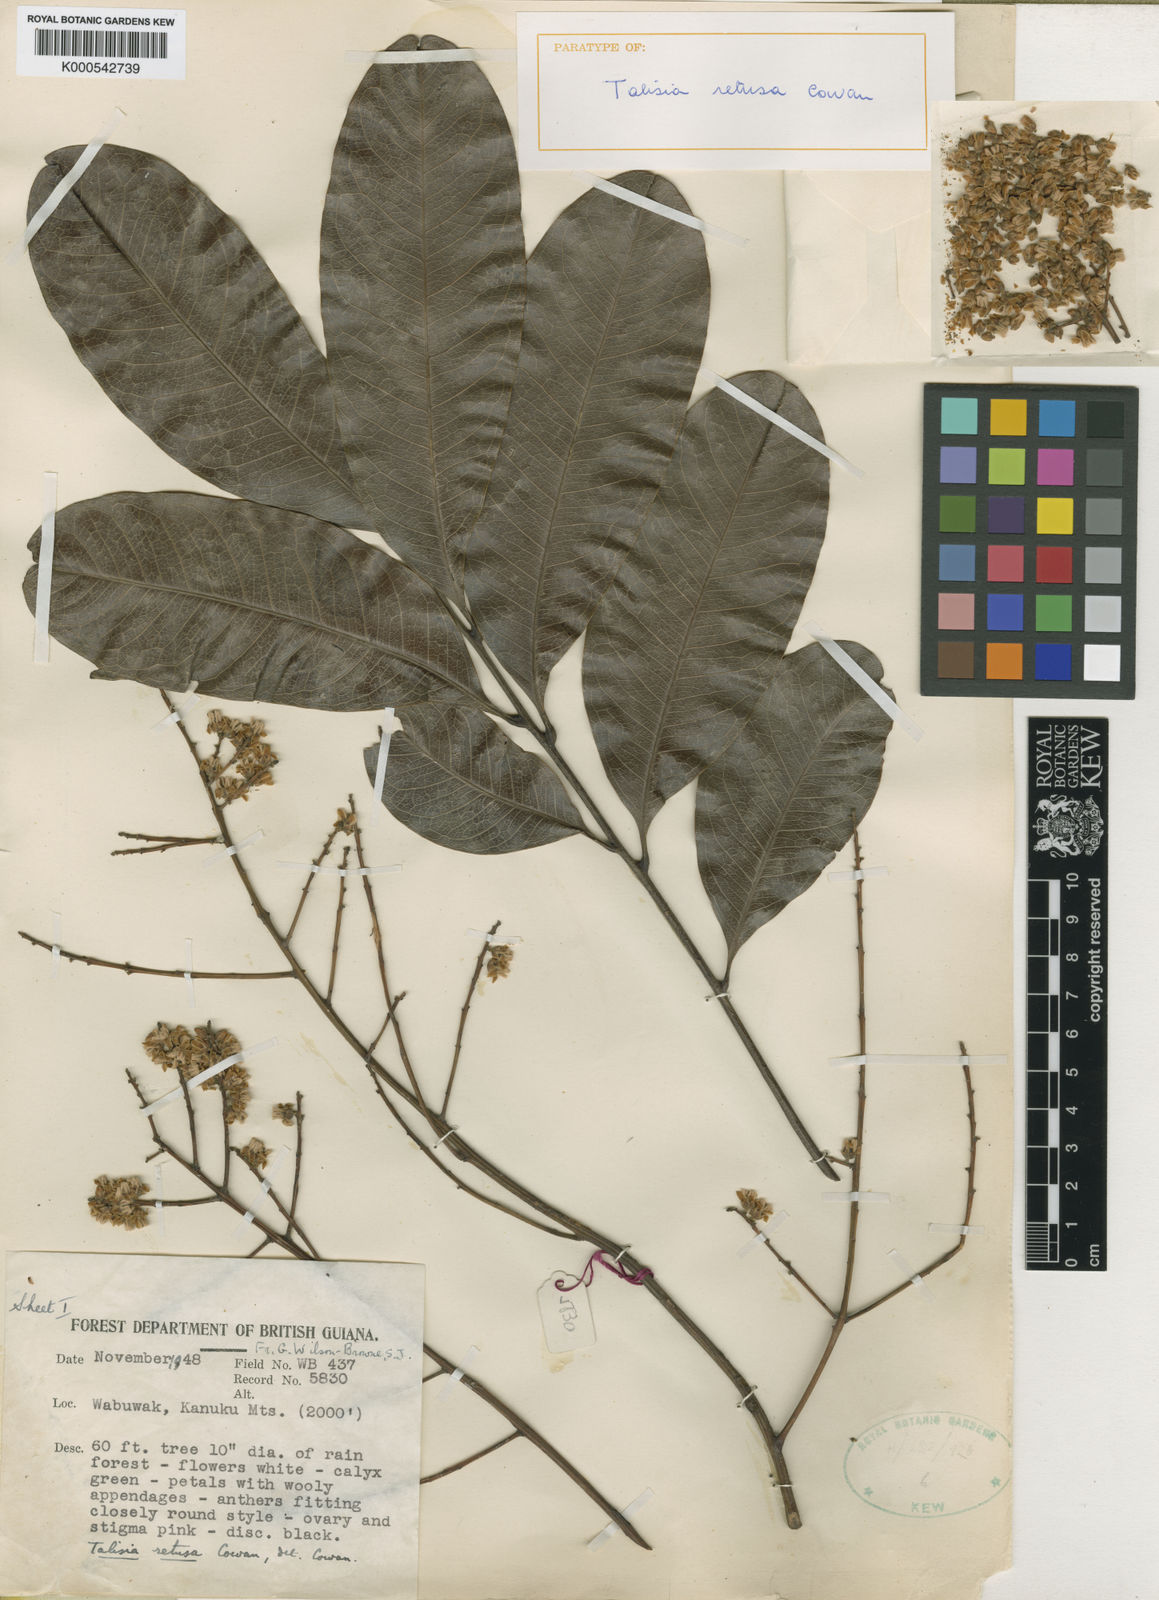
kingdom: Plantae
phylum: Tracheophyta
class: Magnoliopsida
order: Sapindales
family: Sapindaceae
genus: Talisia
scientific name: Talisia retusa
